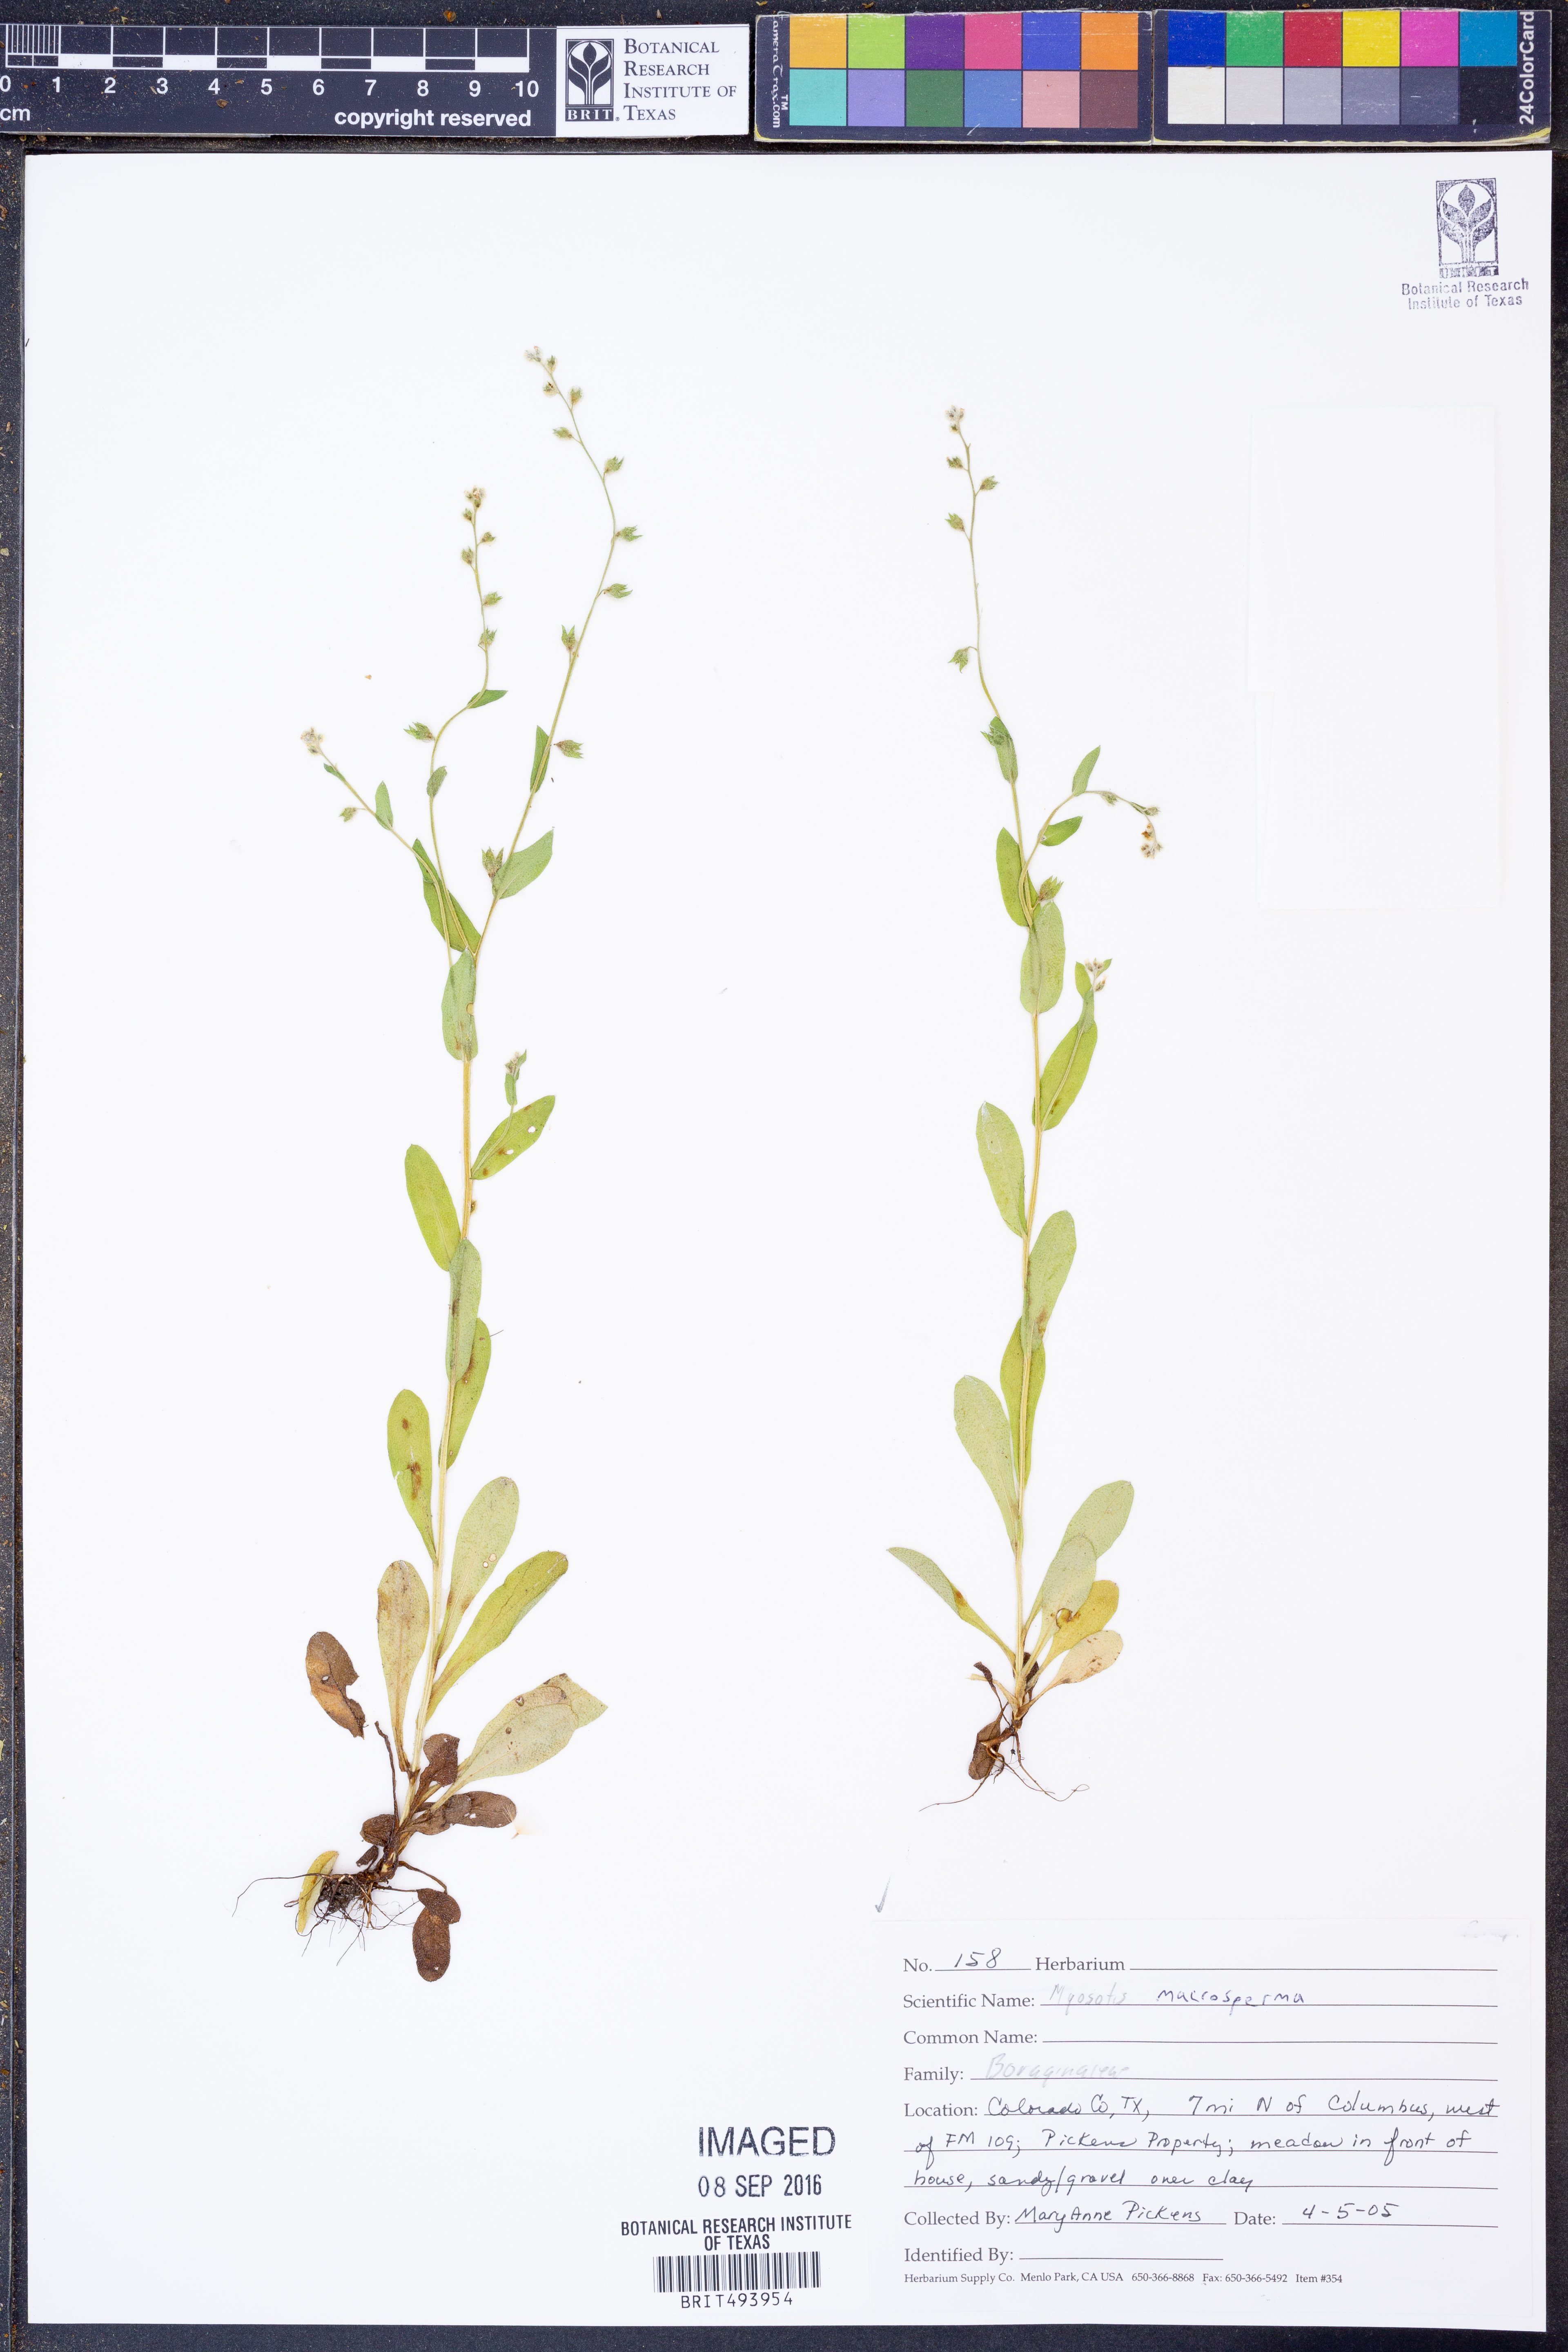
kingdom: Plantae
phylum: Tracheophyta
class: Magnoliopsida
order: Boraginales
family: Boraginaceae
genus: Myosotis
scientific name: Myosotis macrosperma
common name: Large-seed forget-me-not
